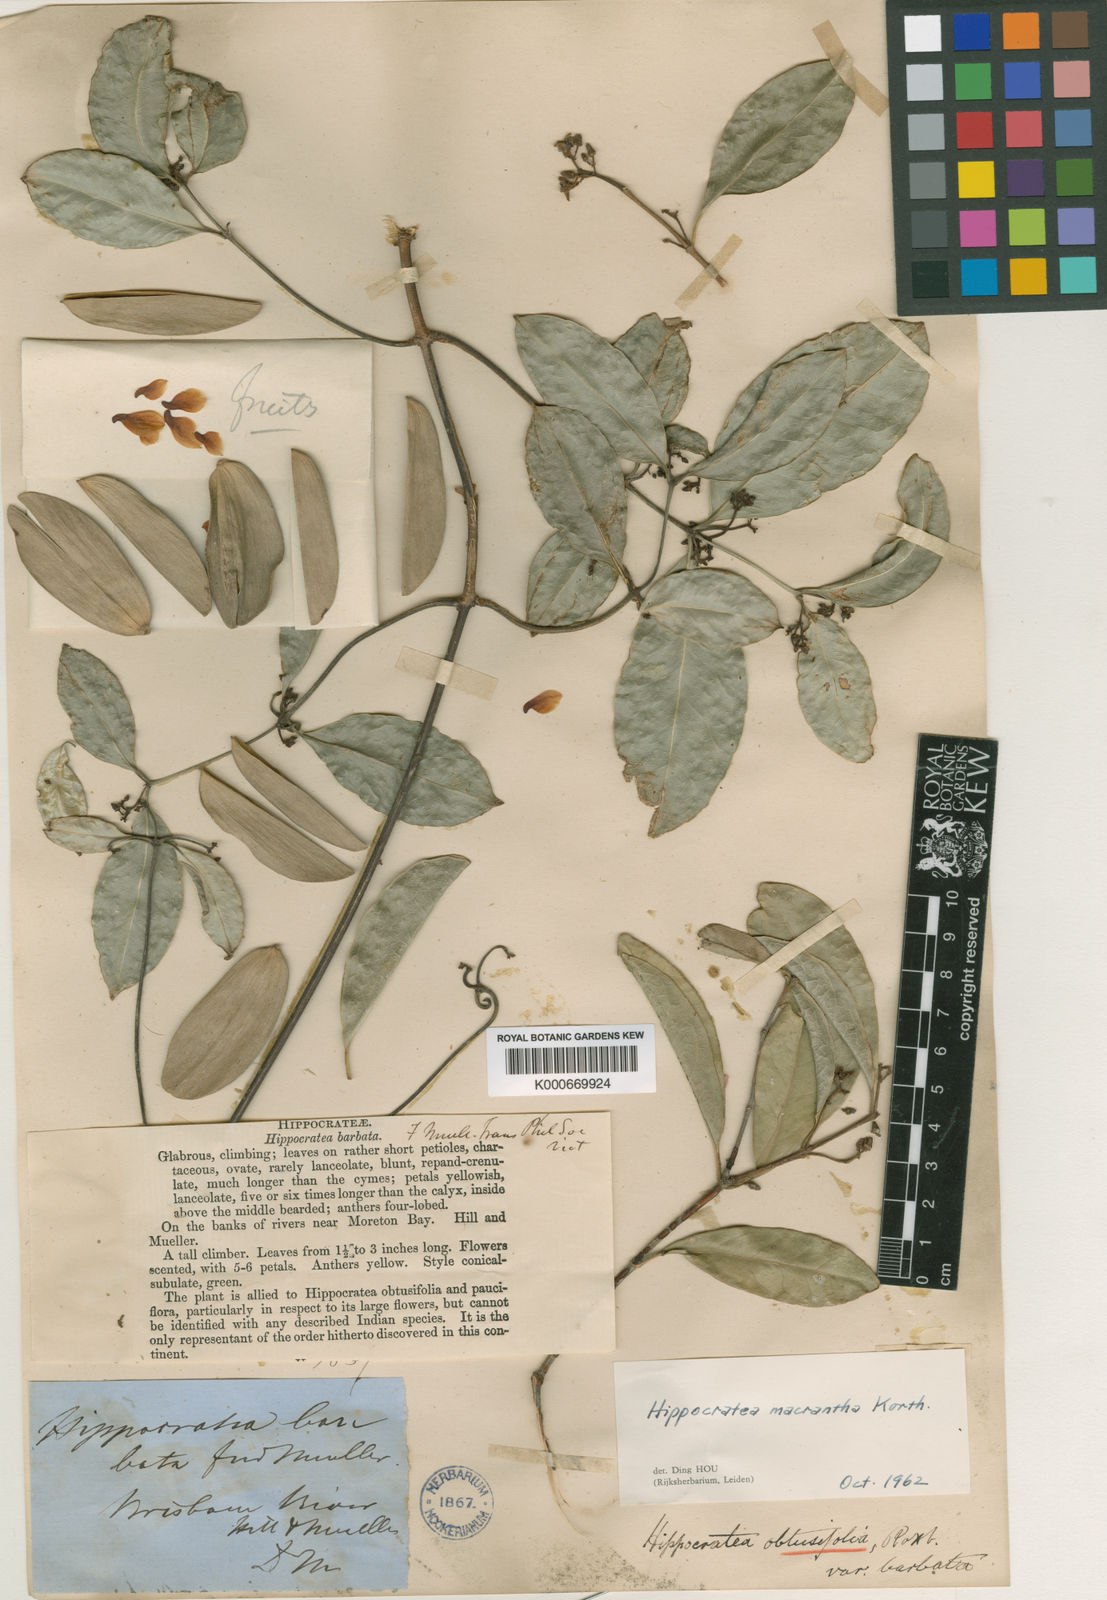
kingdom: Plantae
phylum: Tracheophyta
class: Magnoliopsida
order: Celastrales
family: Celastraceae
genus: Loeseneriella
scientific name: Loeseneriella barbata
